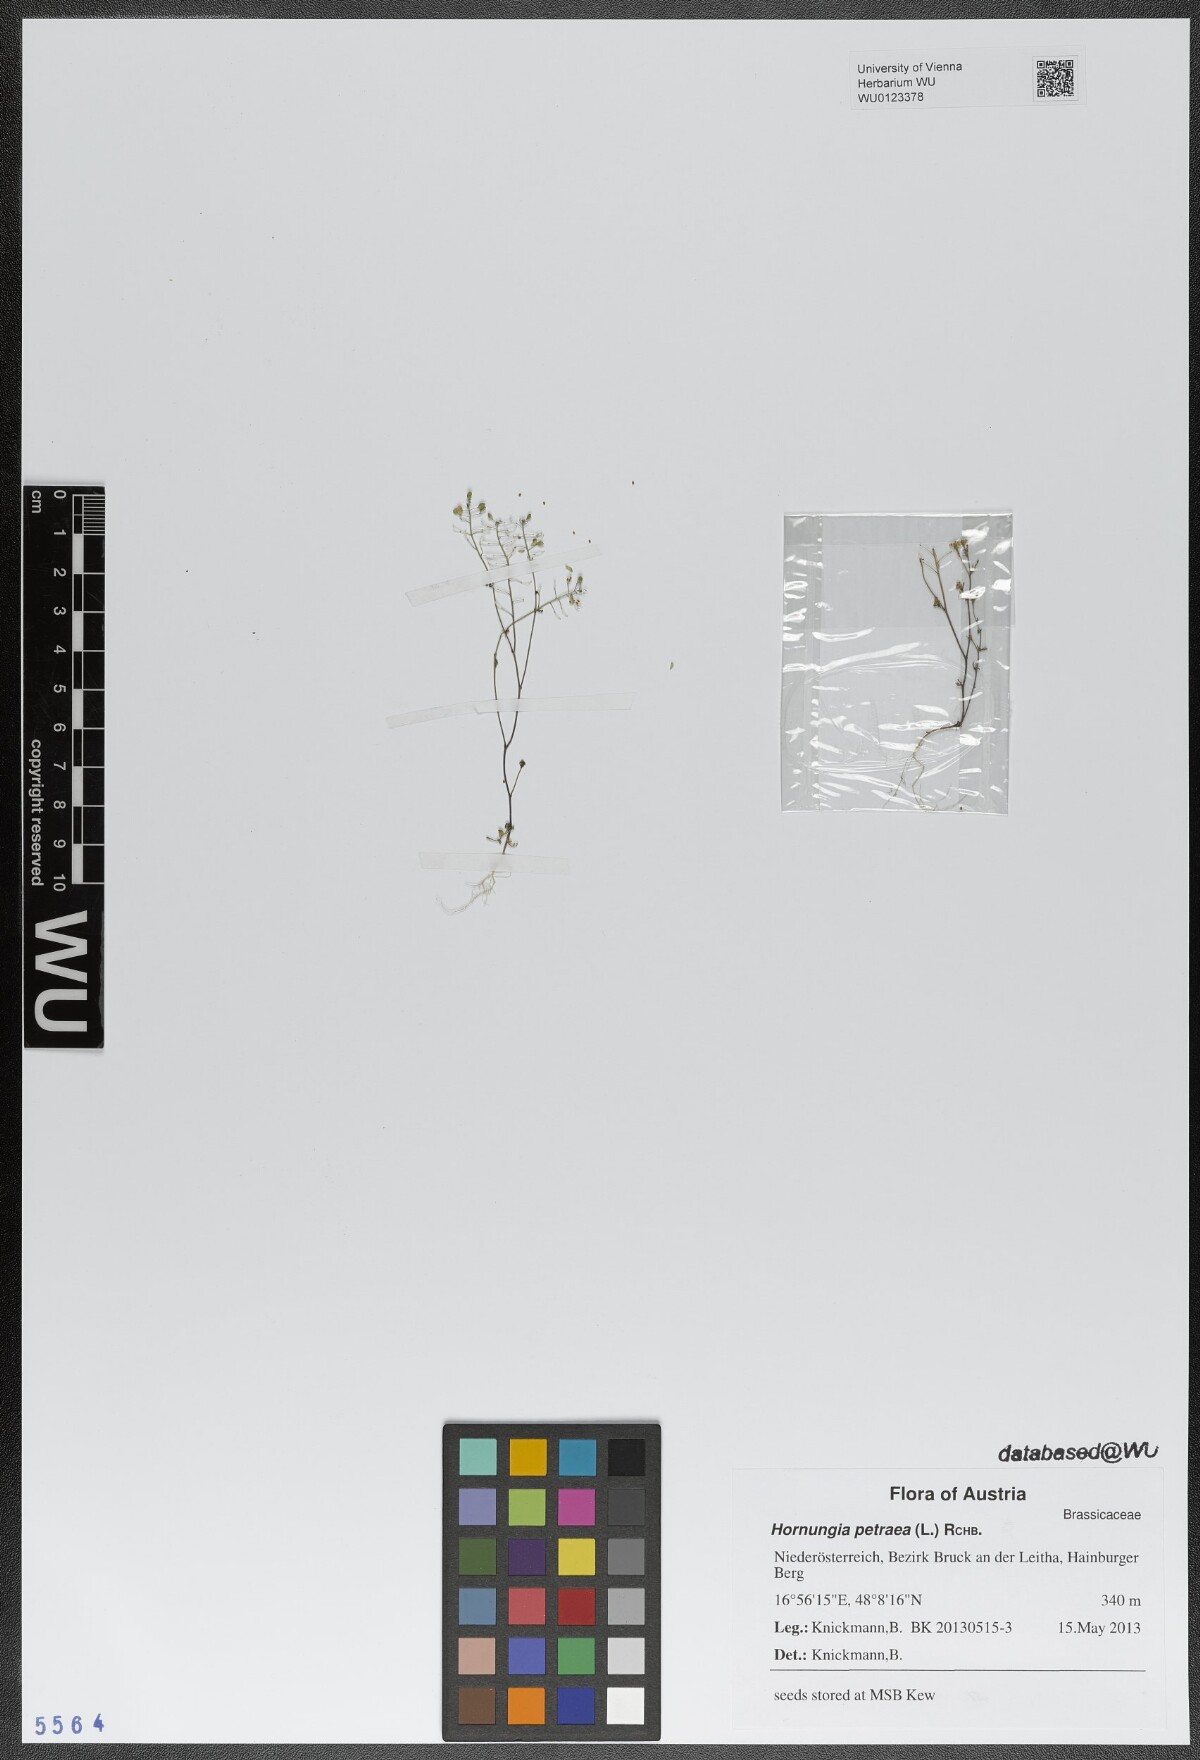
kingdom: Plantae
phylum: Tracheophyta
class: Magnoliopsida
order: Brassicales
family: Brassicaceae
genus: Hornungia
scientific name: Hornungia petraea
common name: Hutchinsia
